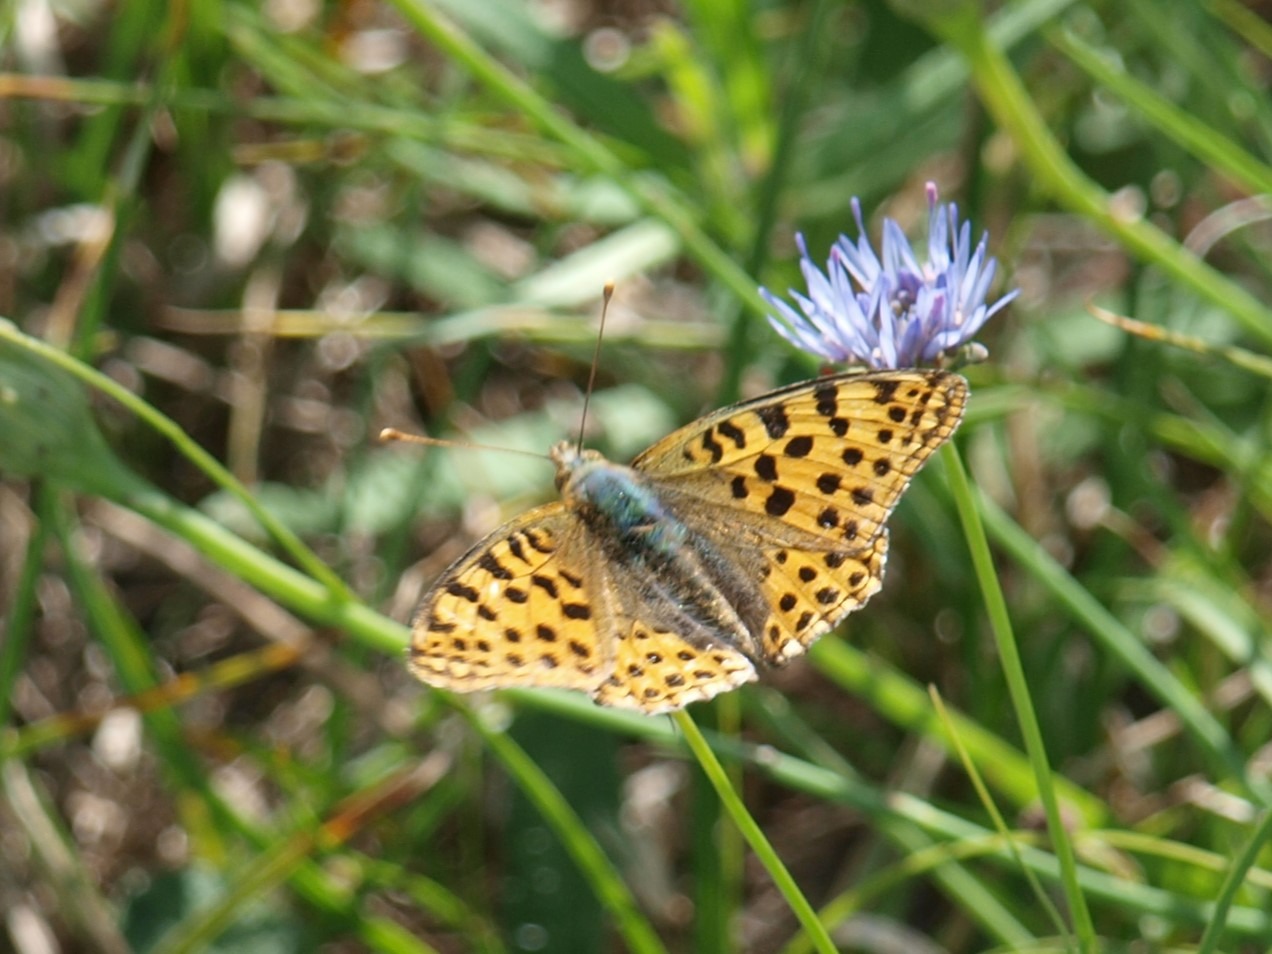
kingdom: Animalia
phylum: Arthropoda
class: Insecta
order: Lepidoptera
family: Nymphalidae
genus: Issoria
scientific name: Issoria lathonia
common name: Storplettet perlemorsommerfugl
